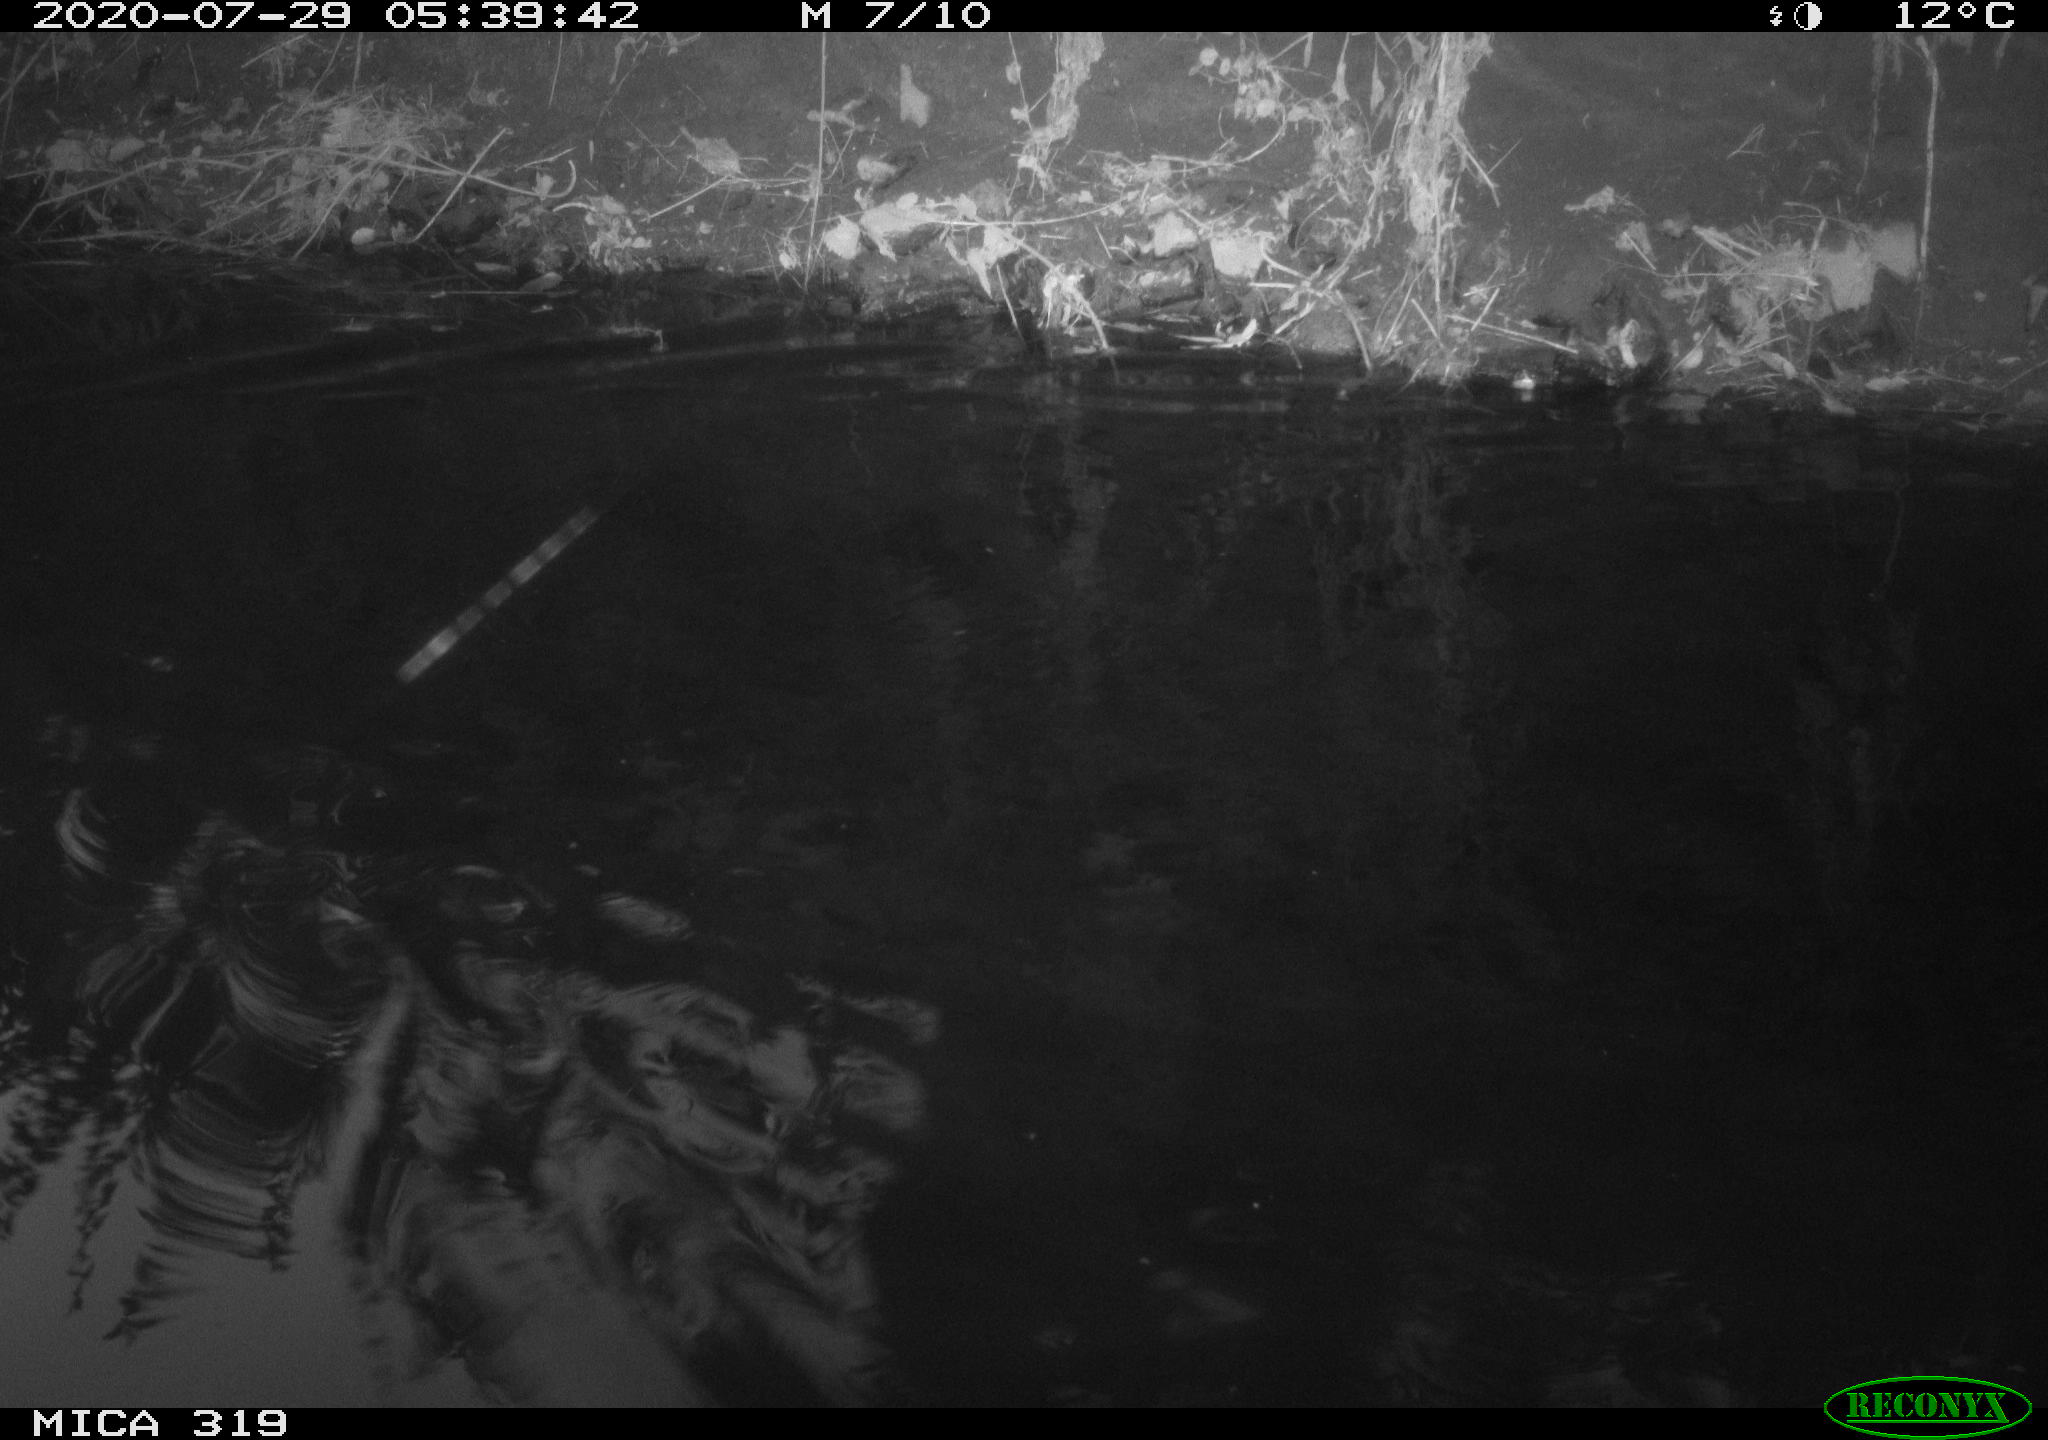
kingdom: Animalia
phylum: Chordata
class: Aves
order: Anseriformes
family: Anatidae
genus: Anas
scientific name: Anas platyrhynchos
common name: Mallard
